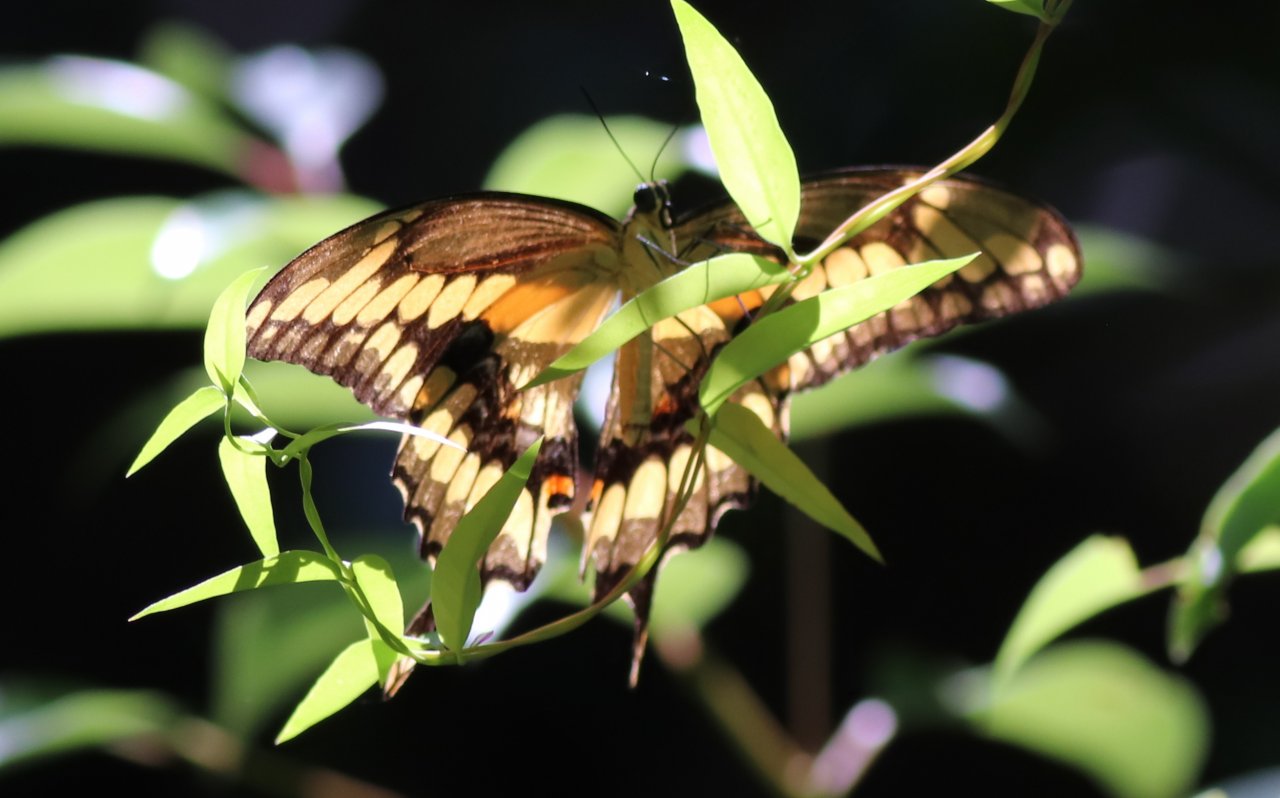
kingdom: Animalia
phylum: Arthropoda
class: Insecta
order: Lepidoptera
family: Papilionidae
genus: Papilio
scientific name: Papilio cresphontes
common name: Eastern Giant Swallowtail
